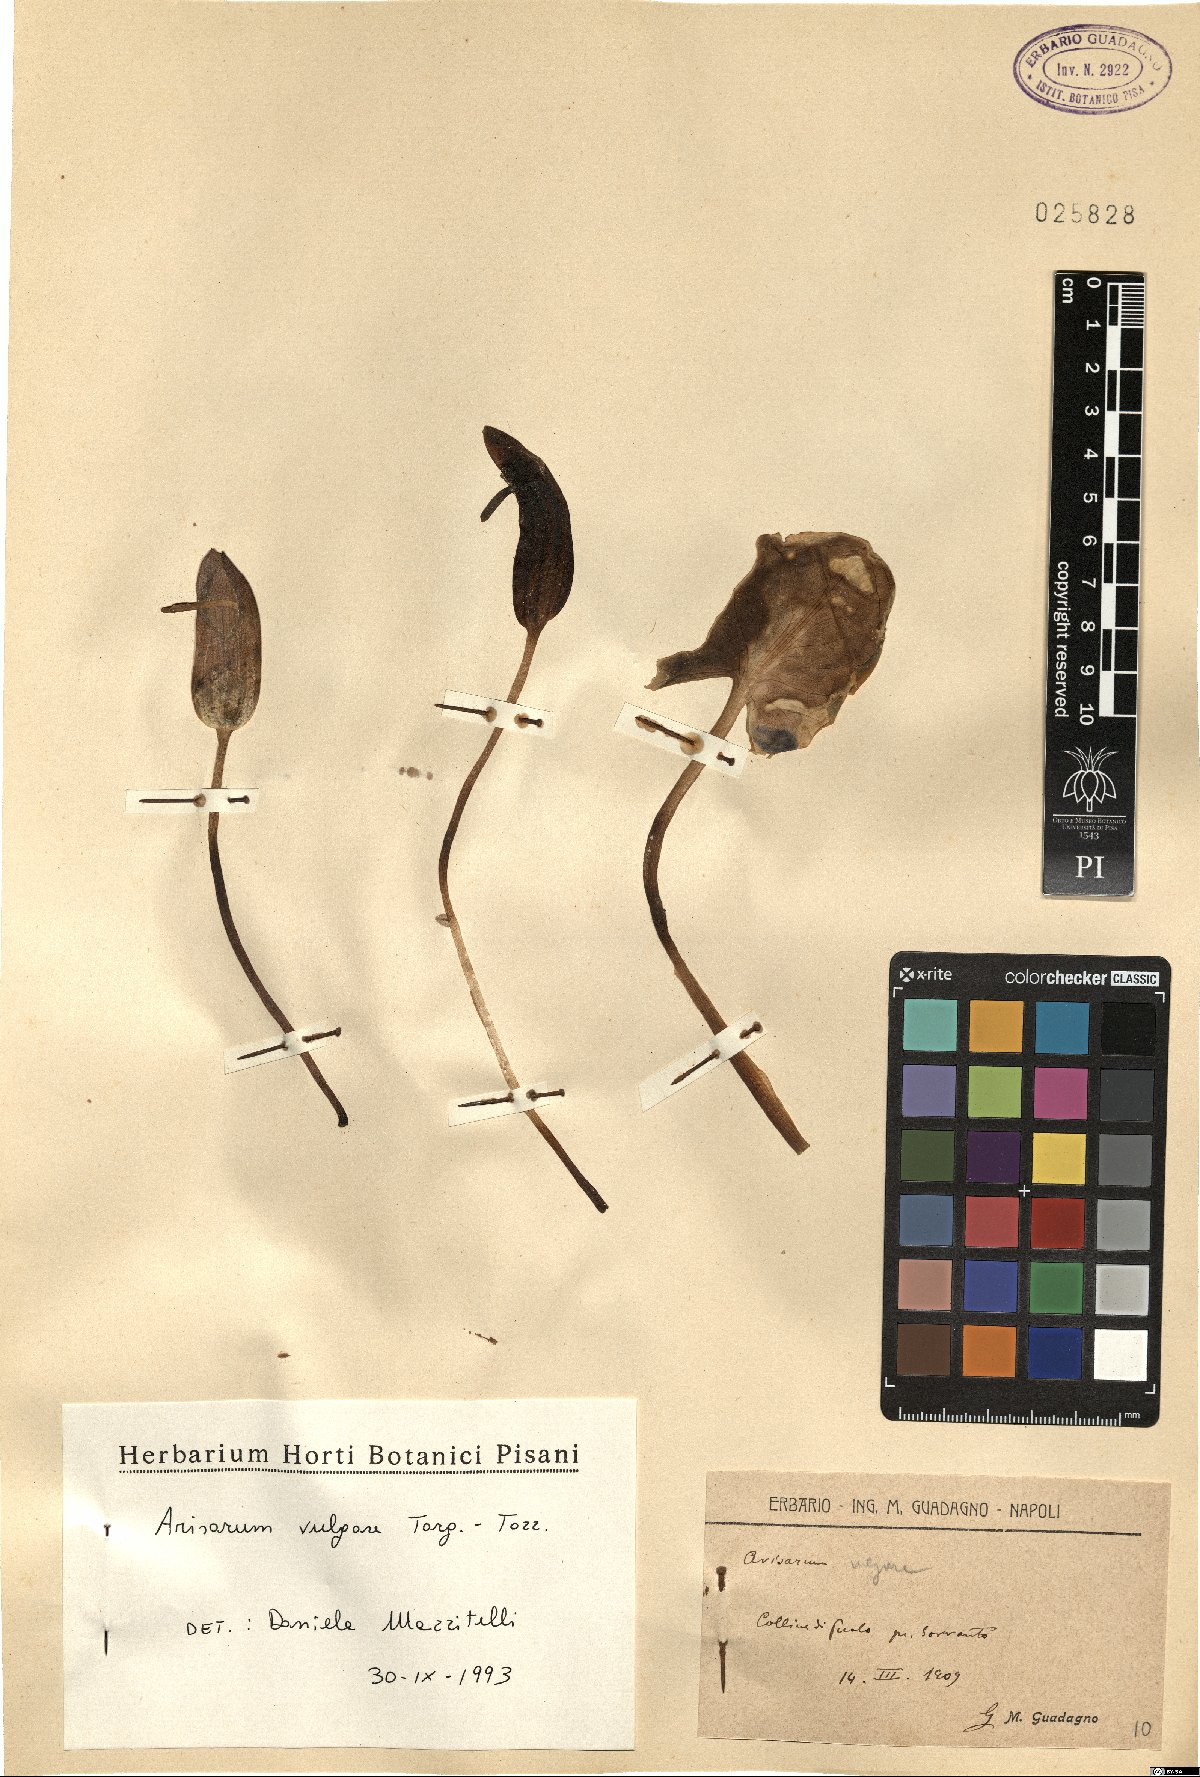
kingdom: Plantae
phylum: Tracheophyta
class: Liliopsida
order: Alismatales
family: Araceae
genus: Arisarum
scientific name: Arisarum vulgare
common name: Common arisarum
